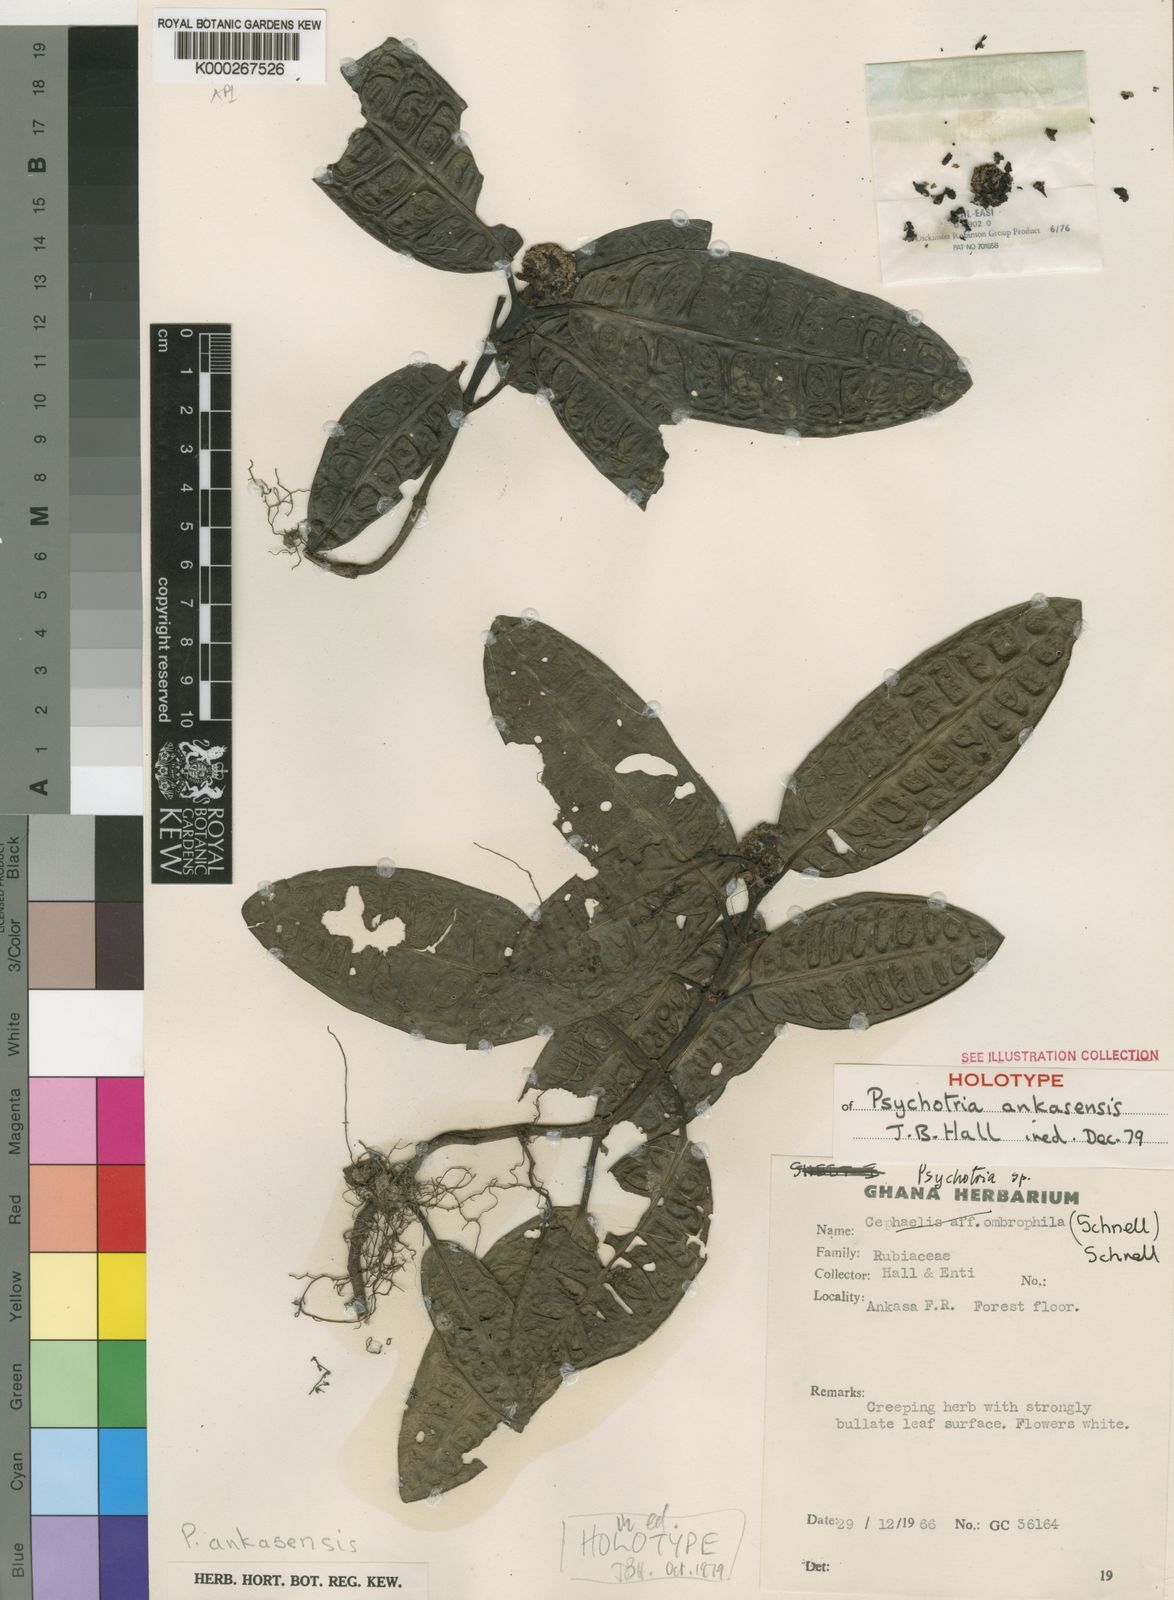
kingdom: Plantae
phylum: Tracheophyta
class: Magnoliopsida
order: Gentianales
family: Rubiaceae
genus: Psychotria
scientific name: Psychotria ankasensis
